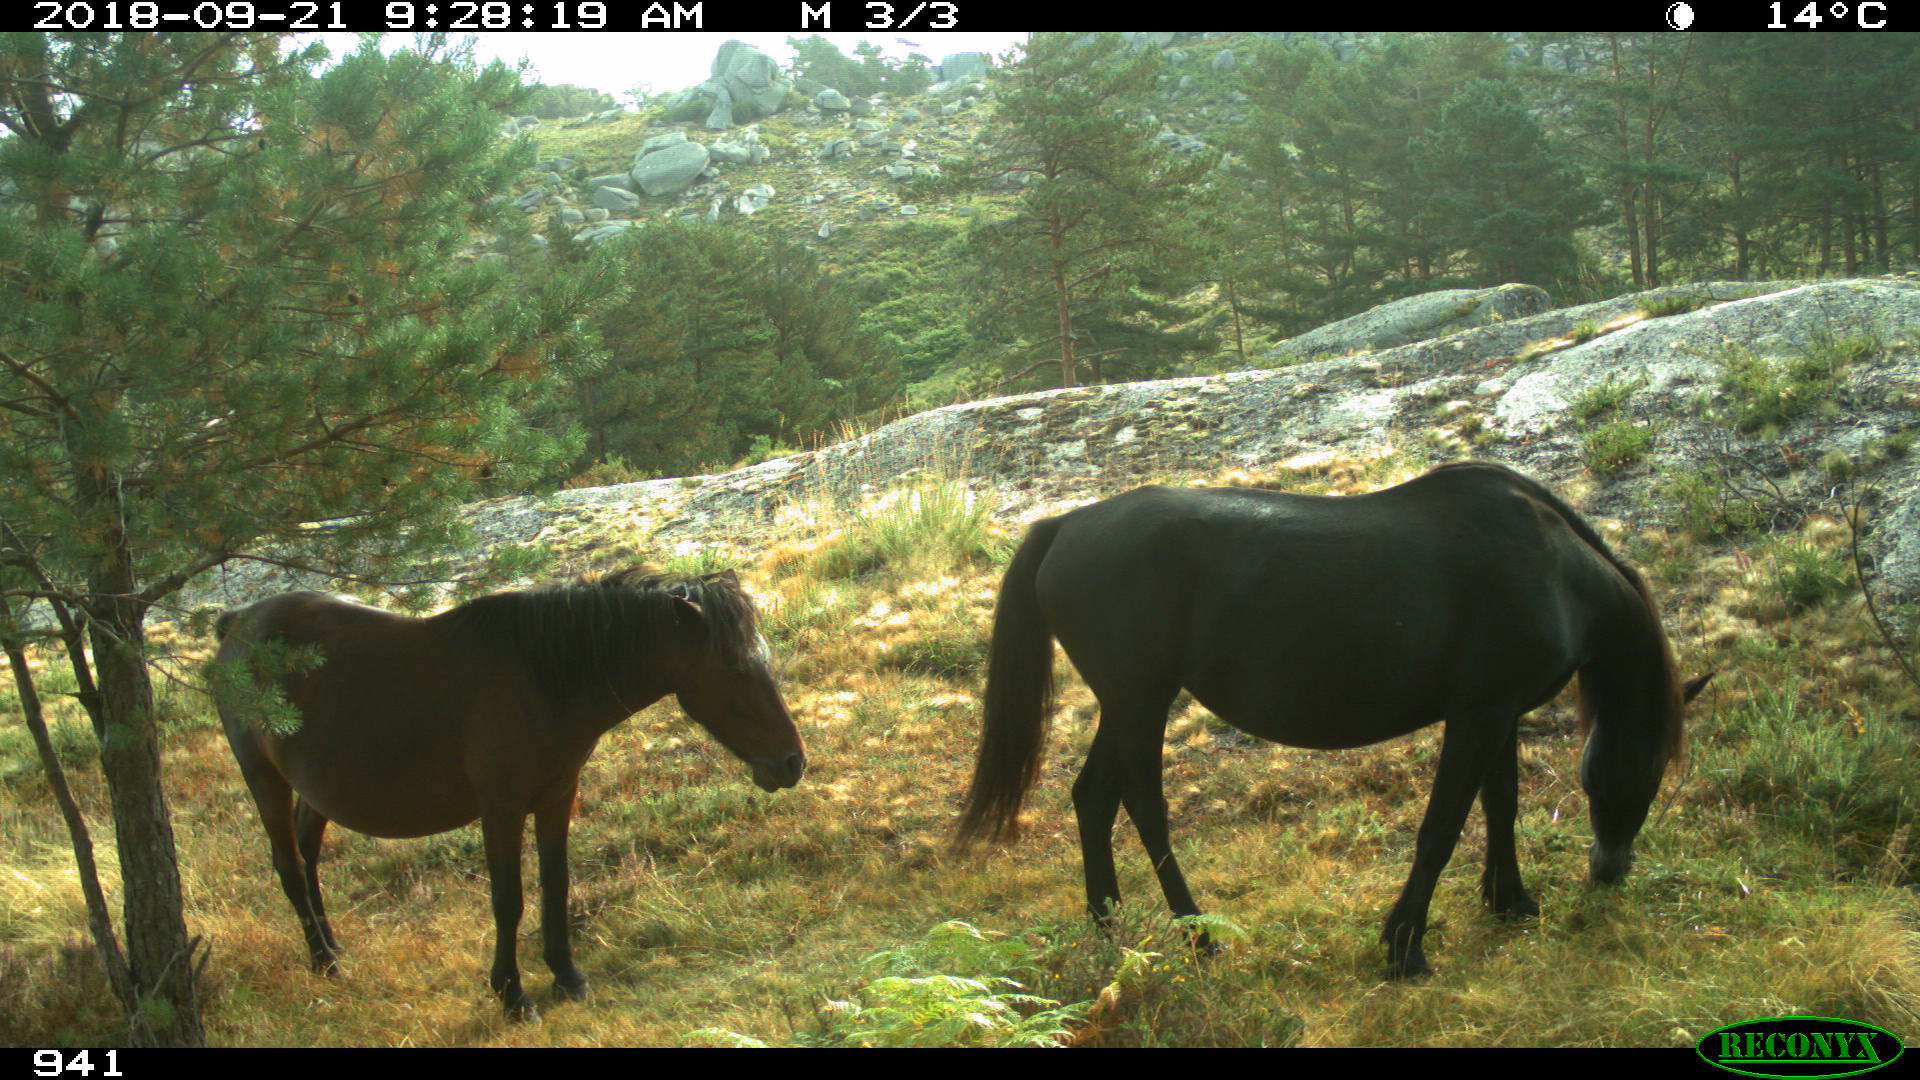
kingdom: Animalia
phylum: Chordata
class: Mammalia
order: Perissodactyla
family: Equidae
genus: Equus
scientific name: Equus caballus
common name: Horse
